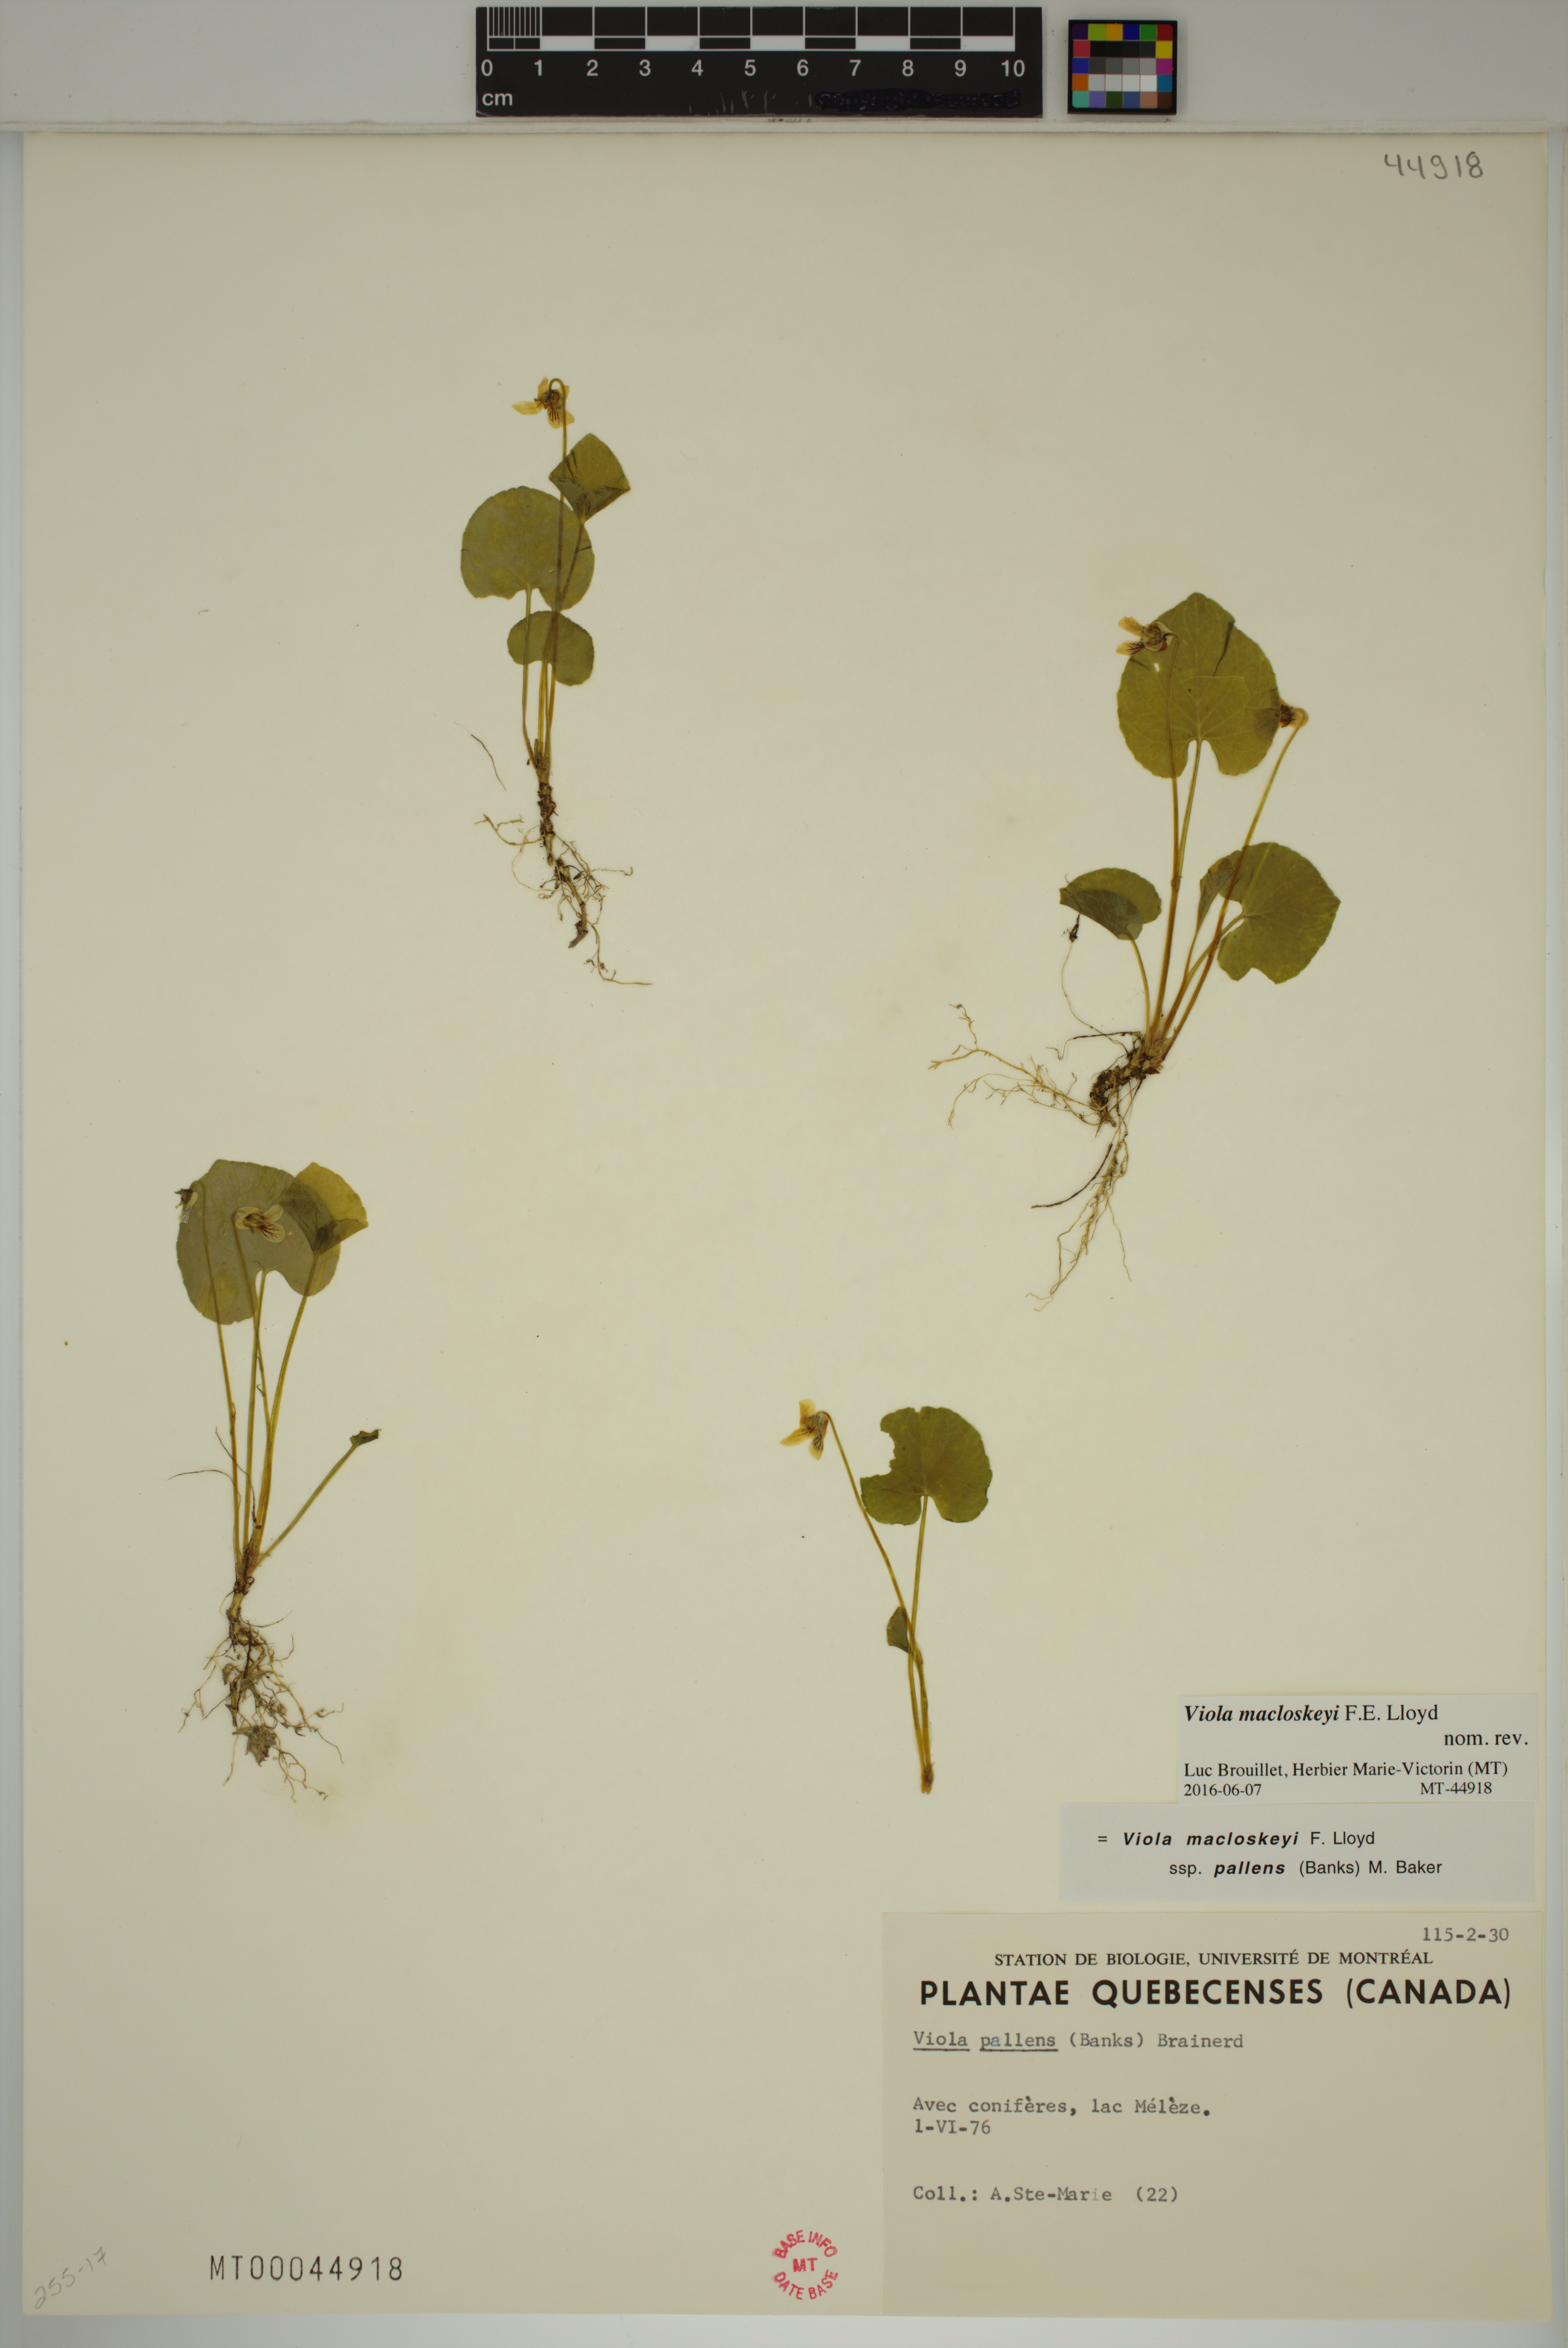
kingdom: Plantae
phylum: Tracheophyta
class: Magnoliopsida
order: Malpighiales
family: Violaceae
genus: Viola
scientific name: Viola macloskeyi
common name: Macloskey's violet
